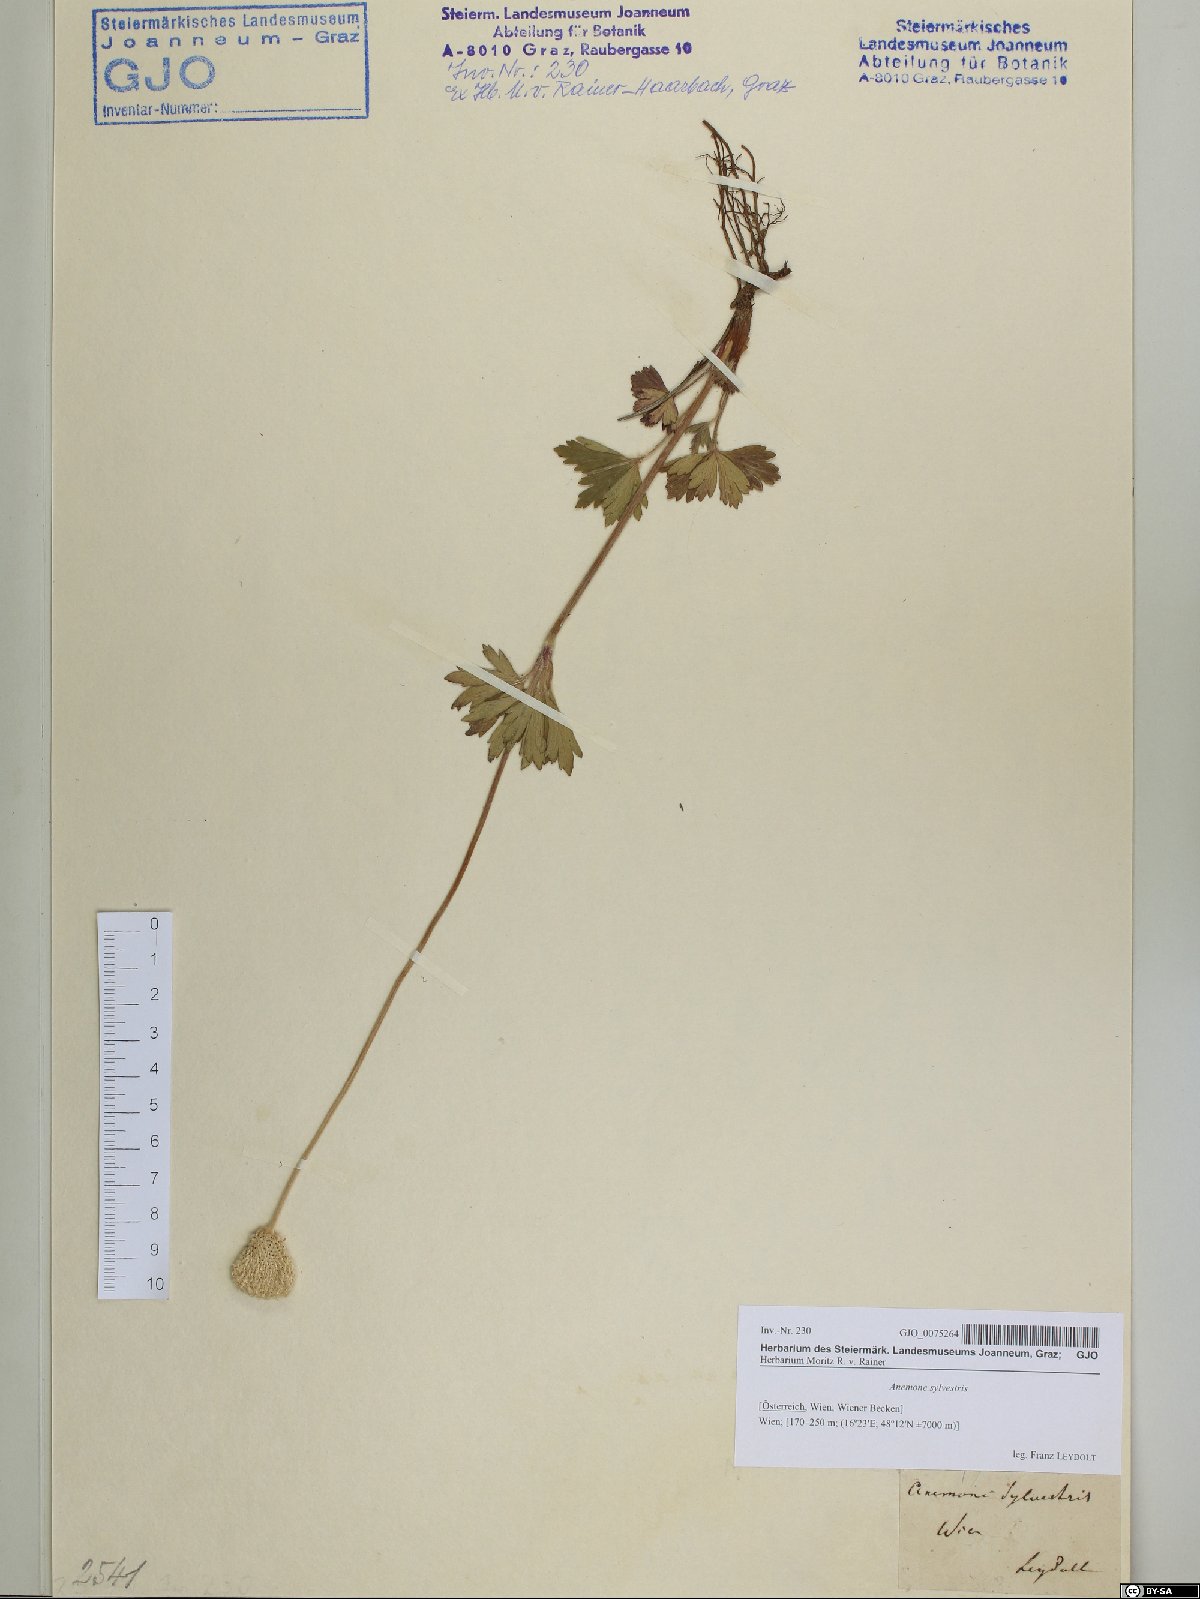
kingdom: Plantae
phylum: Tracheophyta
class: Magnoliopsida
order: Ranunculales
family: Ranunculaceae
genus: Anemone
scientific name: Anemone sylvestris
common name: Snowdrop anemone
